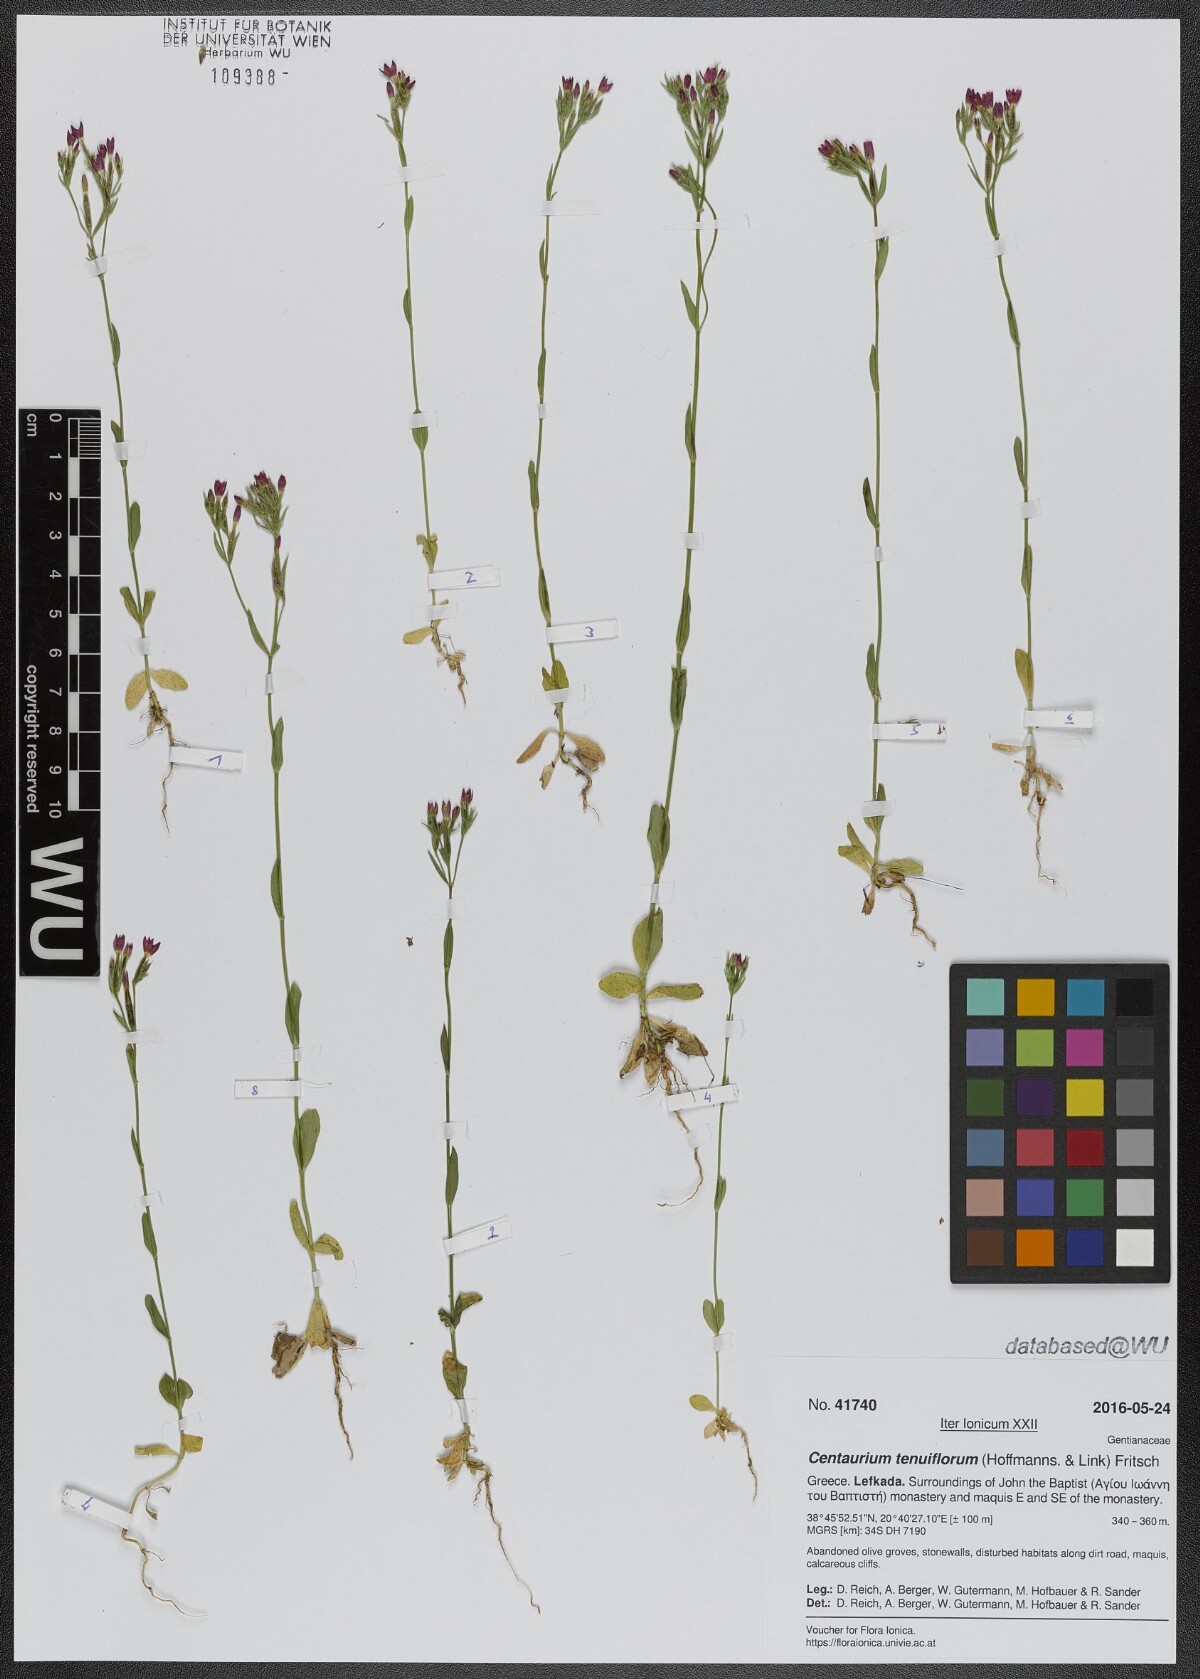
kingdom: Plantae
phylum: Tracheophyta
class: Magnoliopsida
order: Gentianales
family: Gentianaceae
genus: Centaurium
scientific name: Centaurium tenuiflorum
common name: Slender centaury
